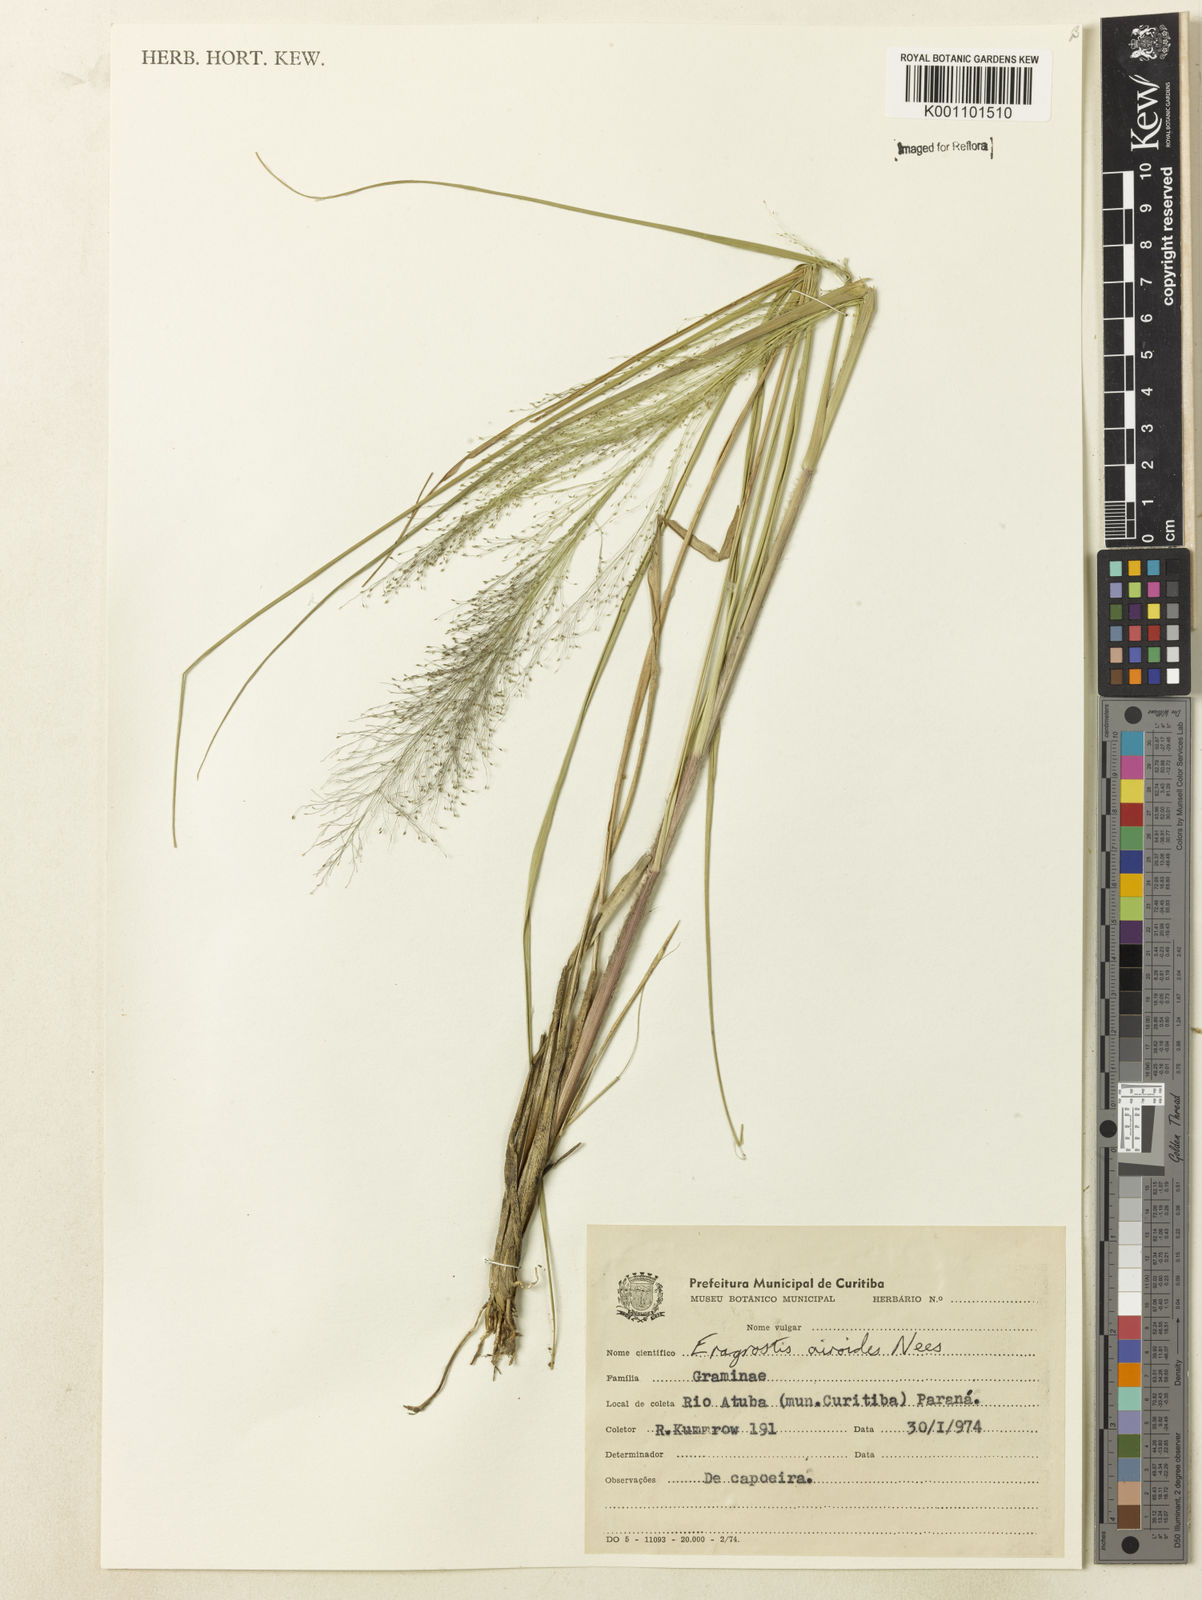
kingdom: Plantae
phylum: Tracheophyta
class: Liliopsida
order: Poales
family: Poaceae
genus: Eragrostis
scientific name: Eragrostis airoides
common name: Darnel lovegrass
